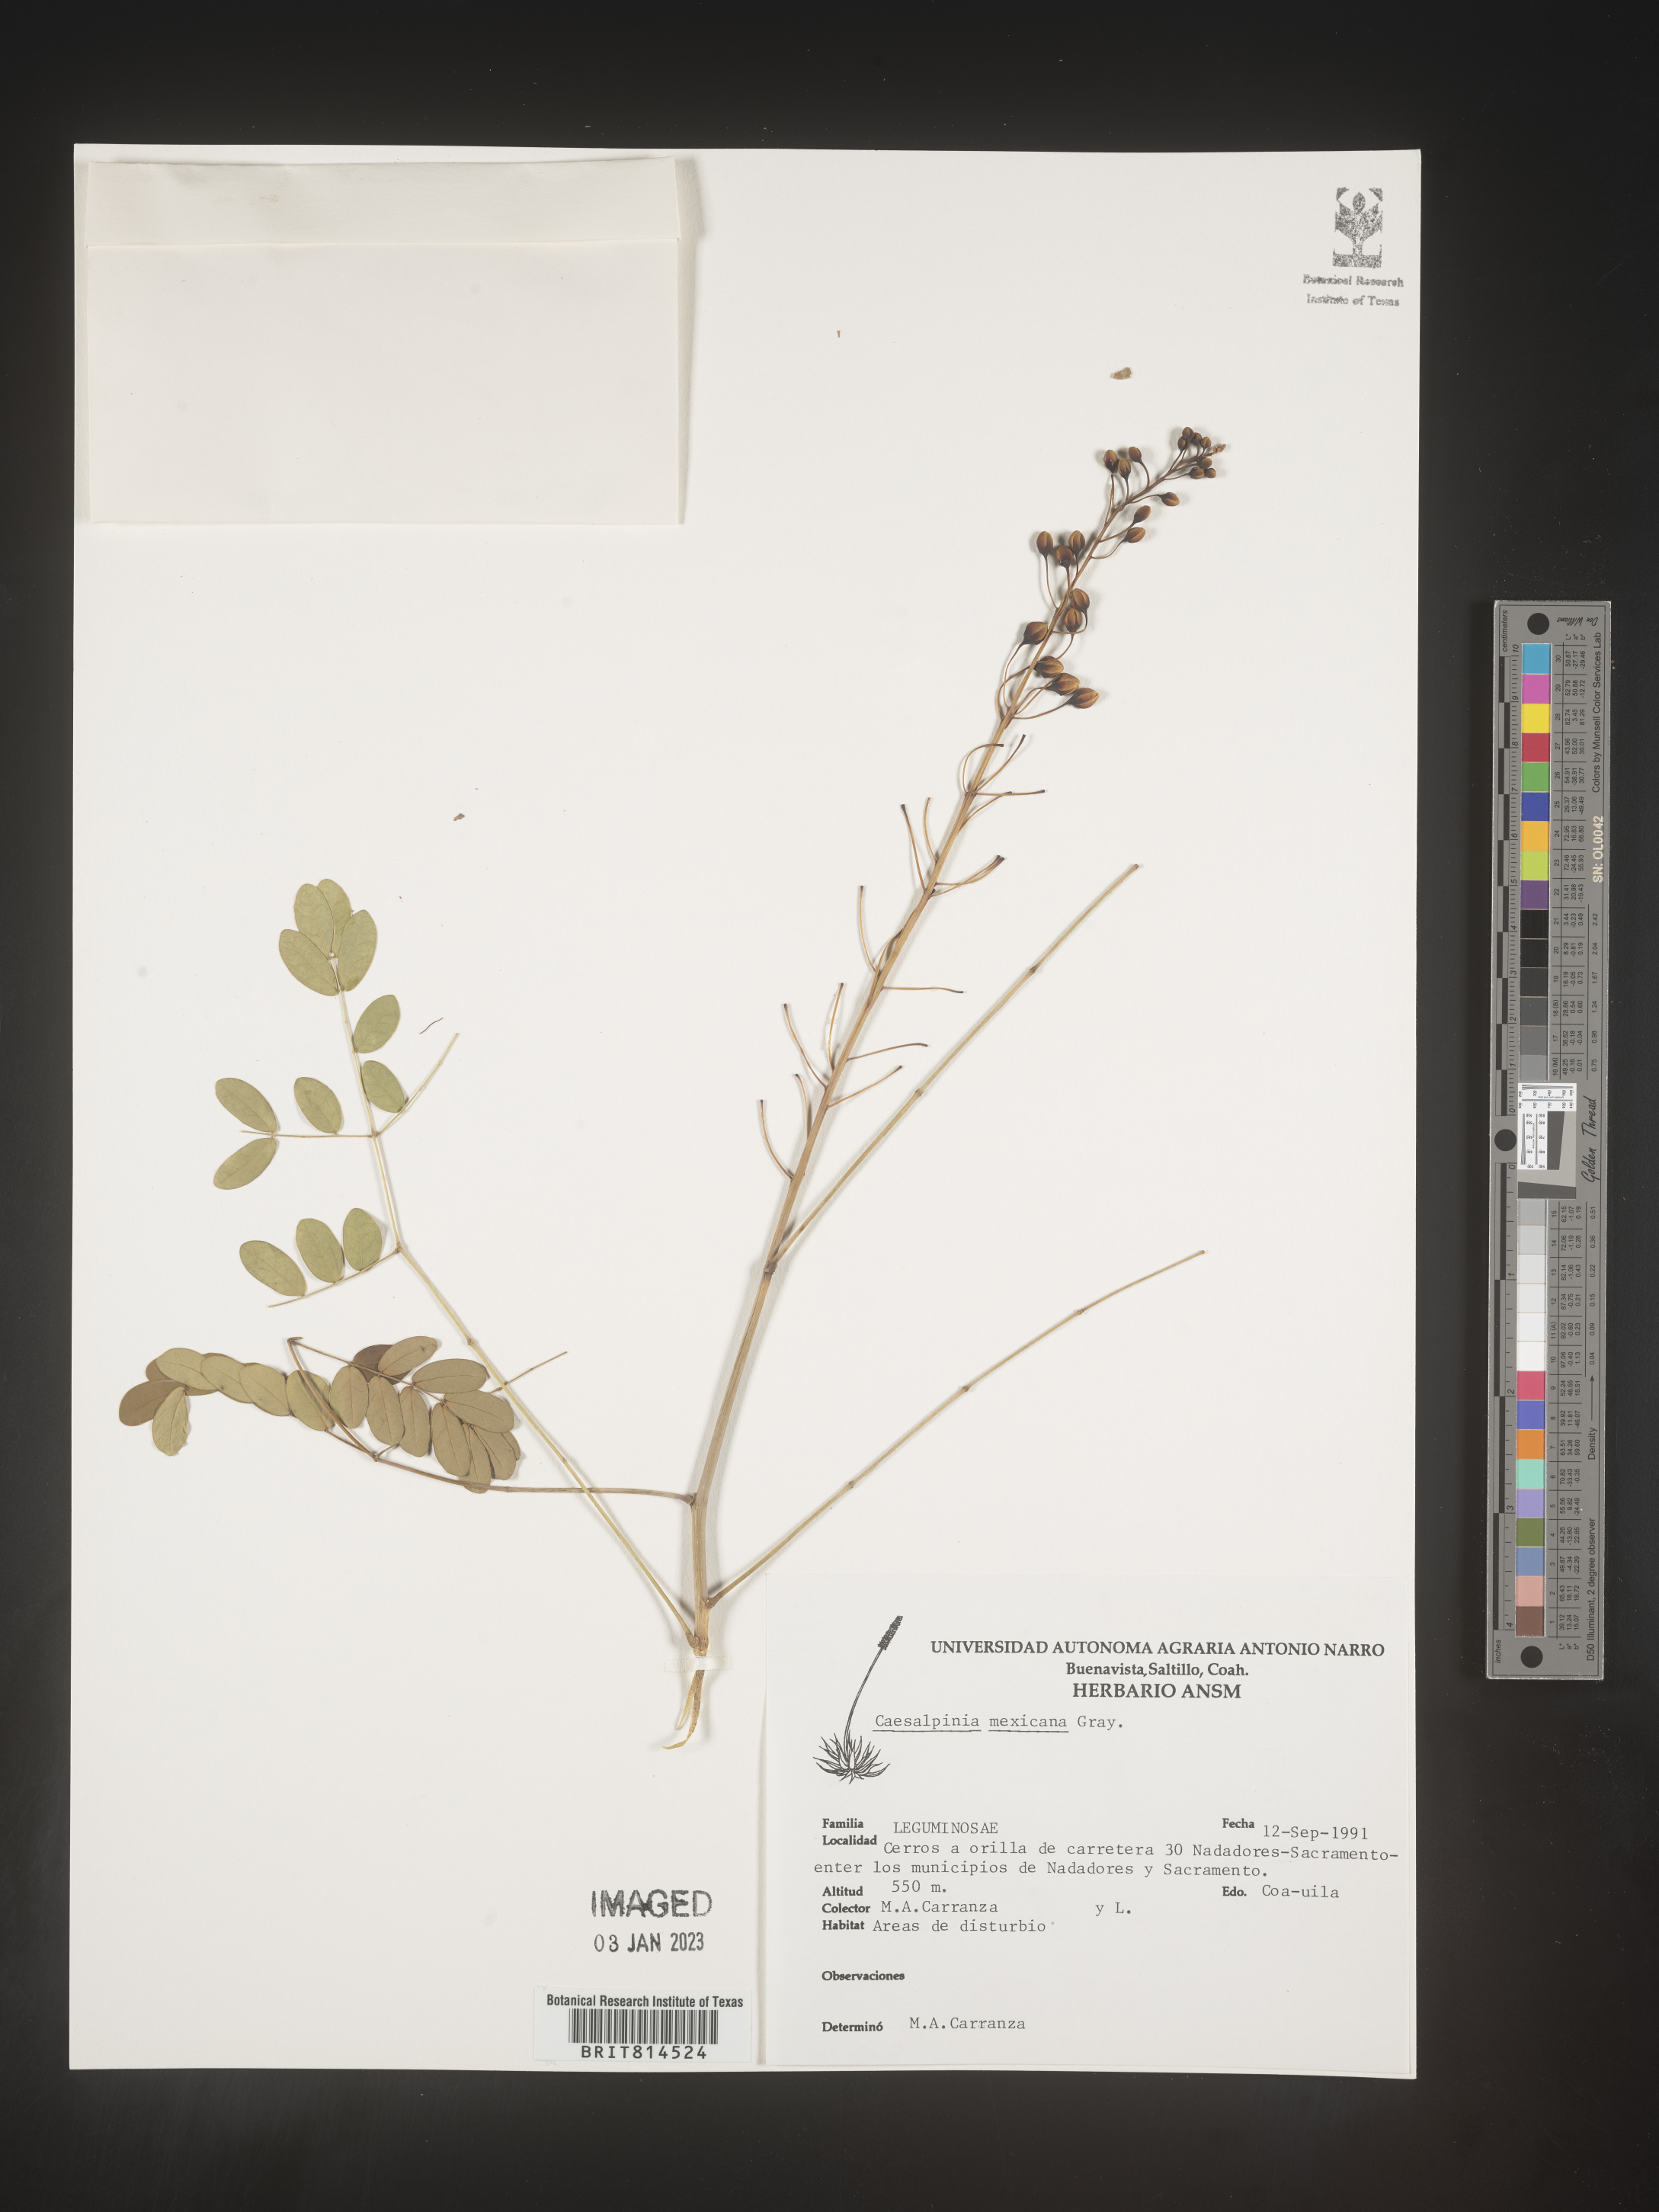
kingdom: Plantae
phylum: Tracheophyta
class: Magnoliopsida
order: Fabales
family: Fabaceae
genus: Caesalpinia
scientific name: Caesalpinia
